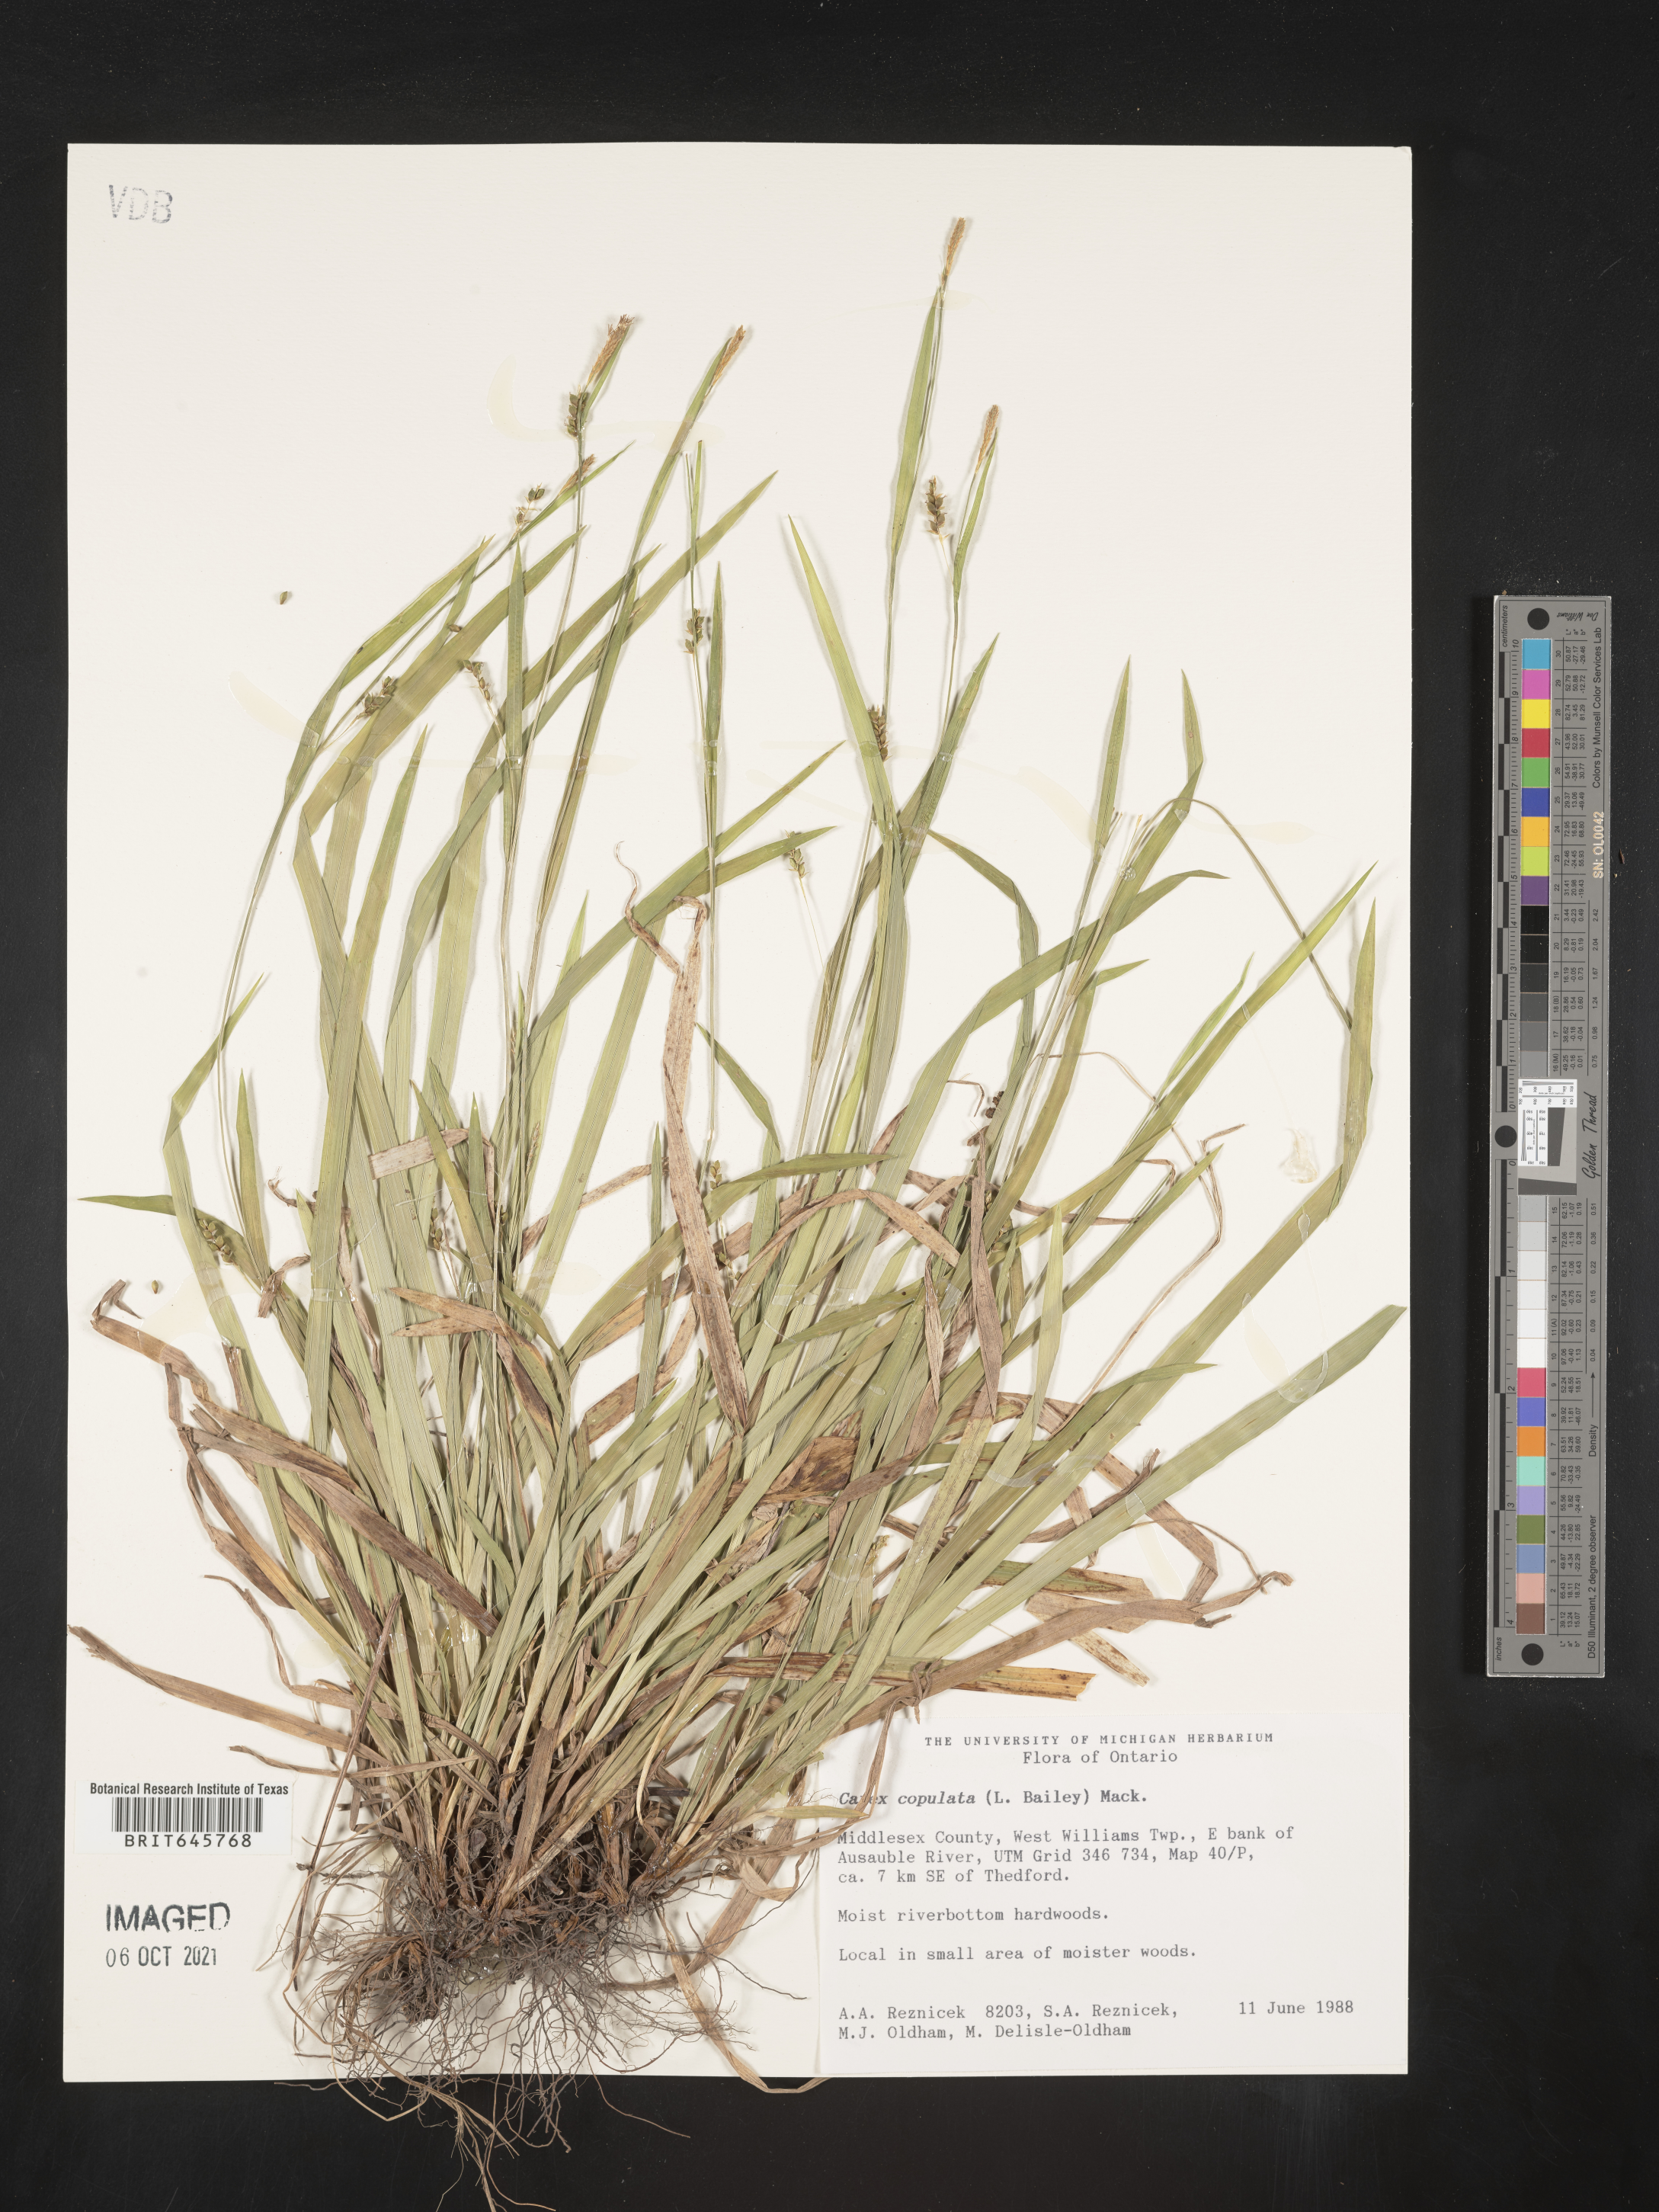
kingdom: Plantae
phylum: Tracheophyta
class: Liliopsida
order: Poales
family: Cyperaceae
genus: Carex
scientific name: Carex laxiculmis
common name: Spreading sedge
